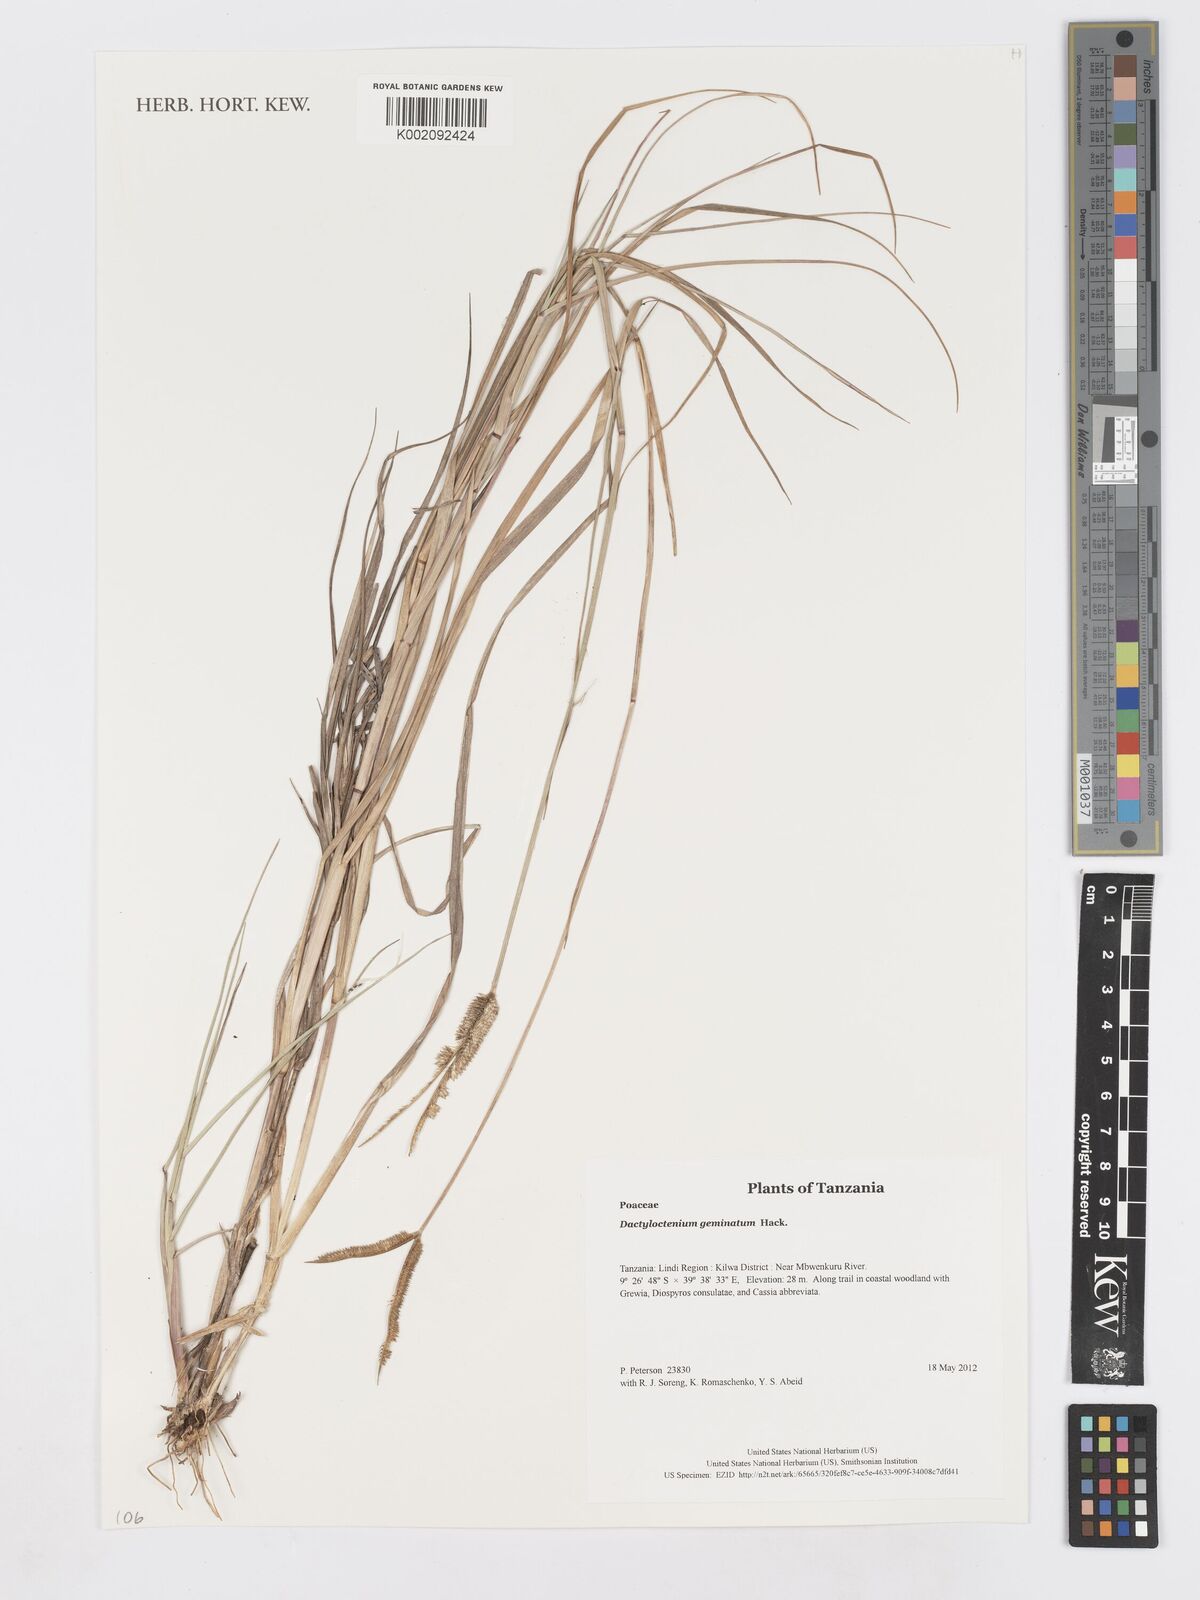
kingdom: Plantae
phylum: Tracheophyta
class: Liliopsida
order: Poales
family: Poaceae
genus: Dactyloctenium
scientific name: Dactyloctenium geminatum
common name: Crowsfoot grass
